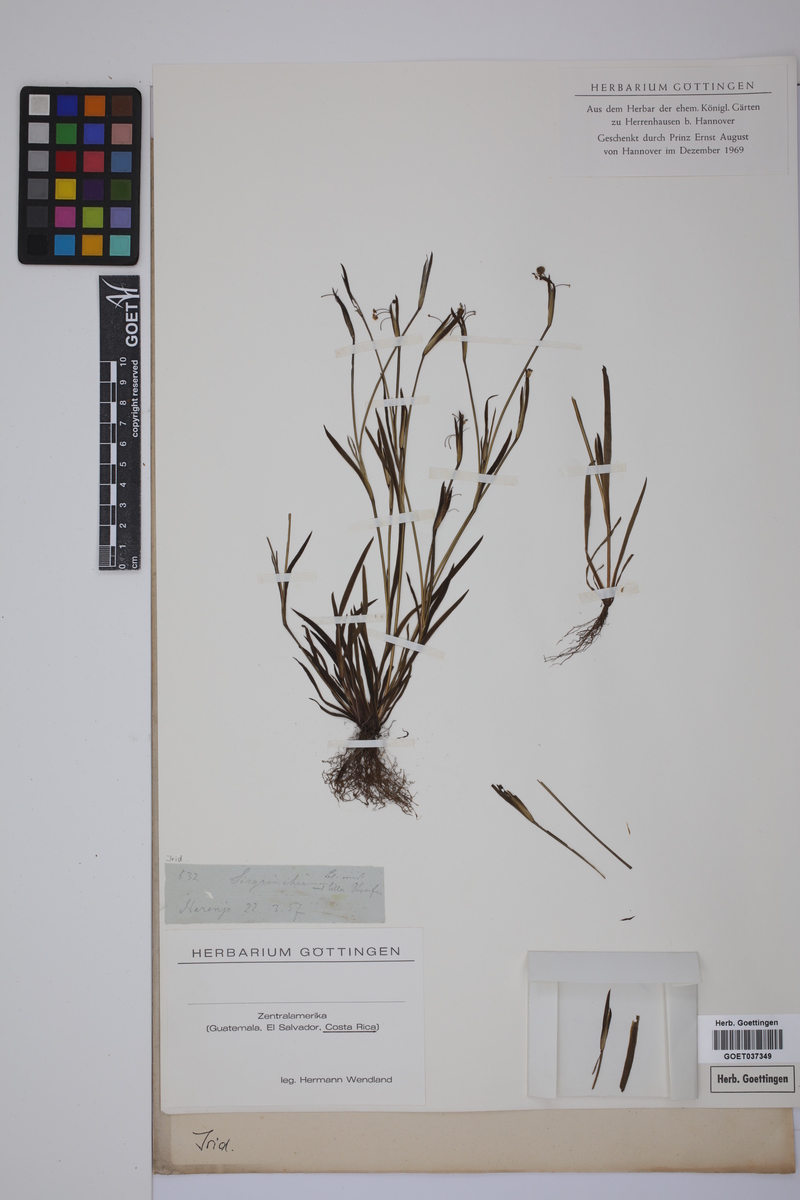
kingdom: Plantae
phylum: Tracheophyta
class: Liliopsida
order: Asparagales
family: Iridaceae
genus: Sisyrinchium
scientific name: Sisyrinchium
